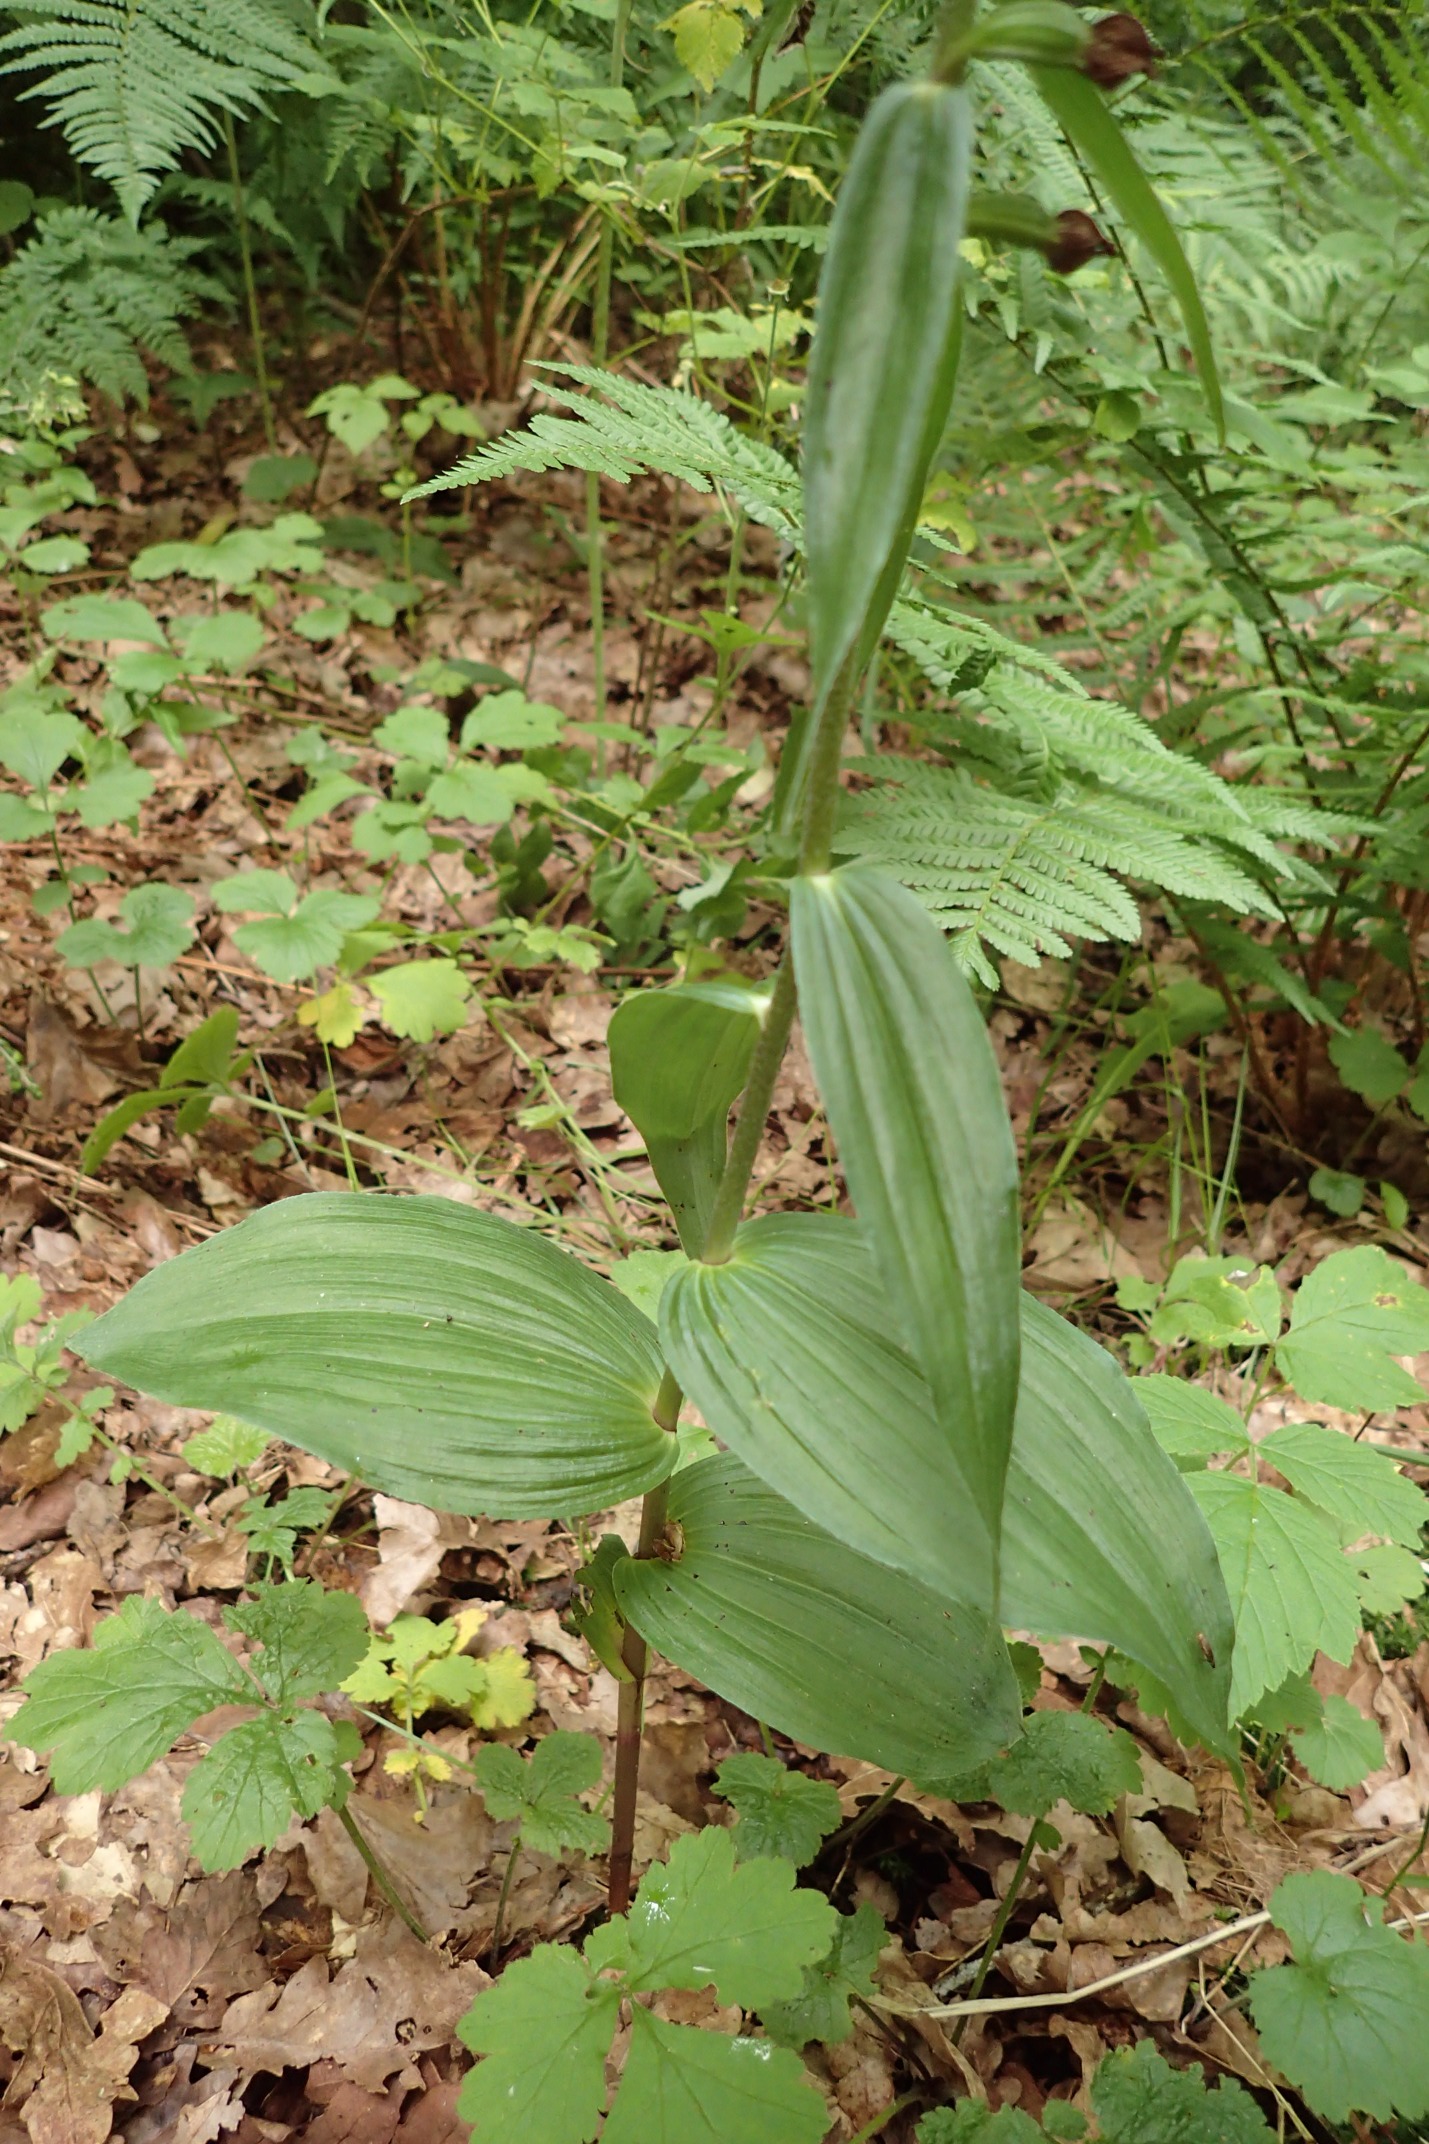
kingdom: Plantae
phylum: Tracheophyta
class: Liliopsida
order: Asparagales
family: Orchidaceae
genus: Epipactis
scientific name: Epipactis helleborine
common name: Skov-hullæbe
